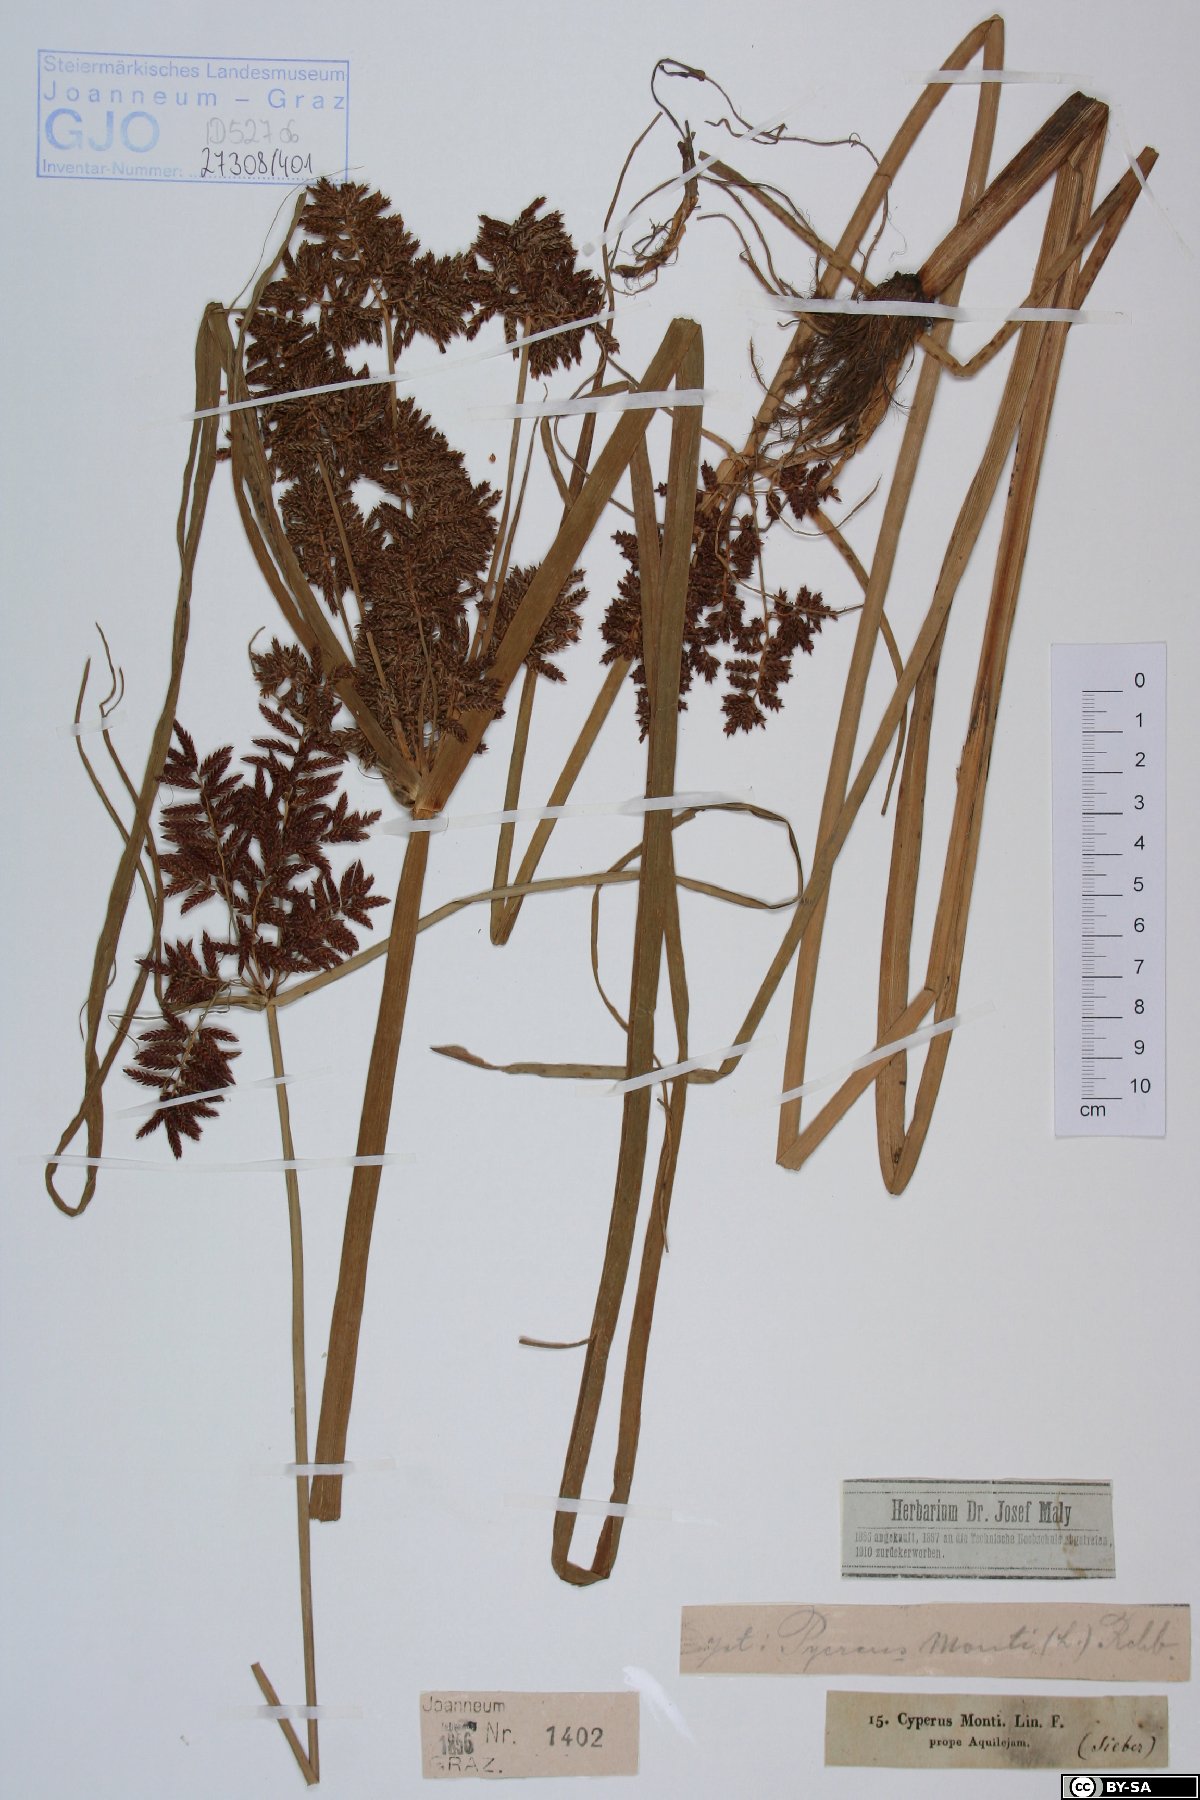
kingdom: Plantae
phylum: Tracheophyta
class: Liliopsida
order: Poales
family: Cyperaceae
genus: Cyperus
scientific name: Cyperus serotinus
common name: Tidalmarsh flatsedge
